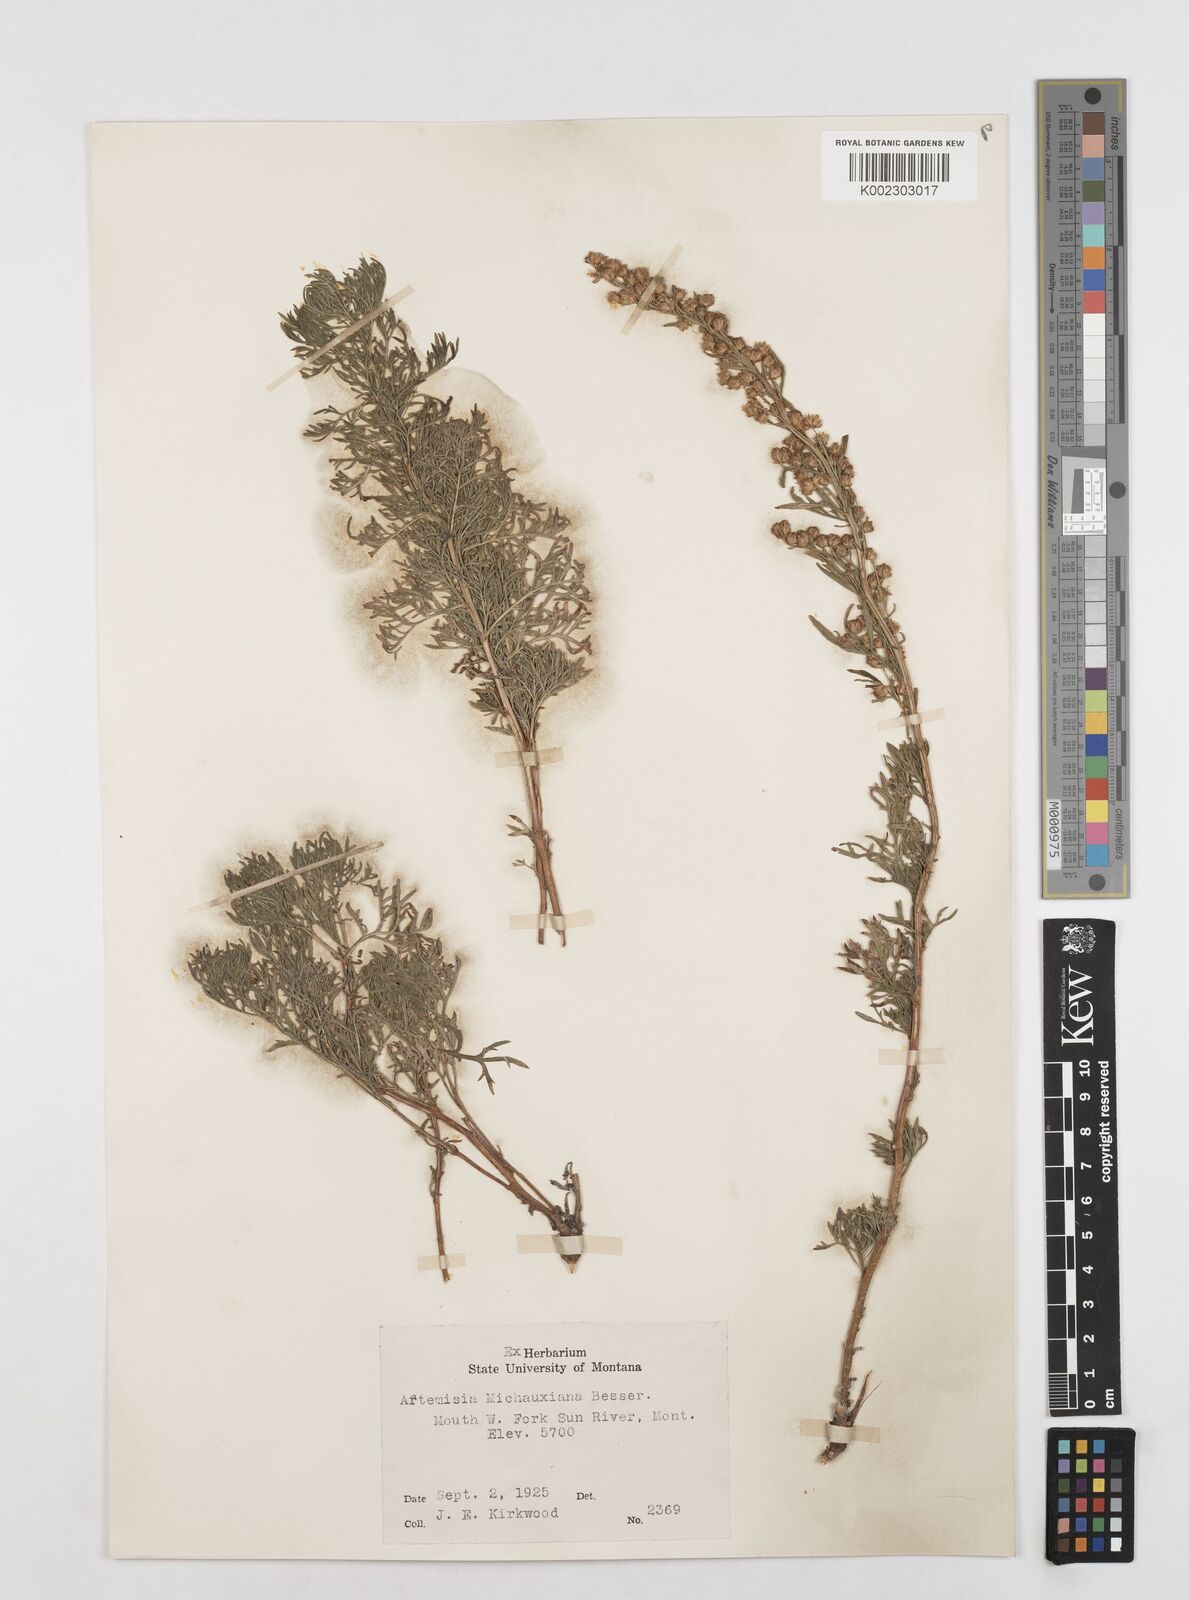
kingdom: Plantae
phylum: Tracheophyta
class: Magnoliopsida
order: Asterales
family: Asteraceae
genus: Artemisia
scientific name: Artemisia michauxiana
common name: Lemon sagewort
